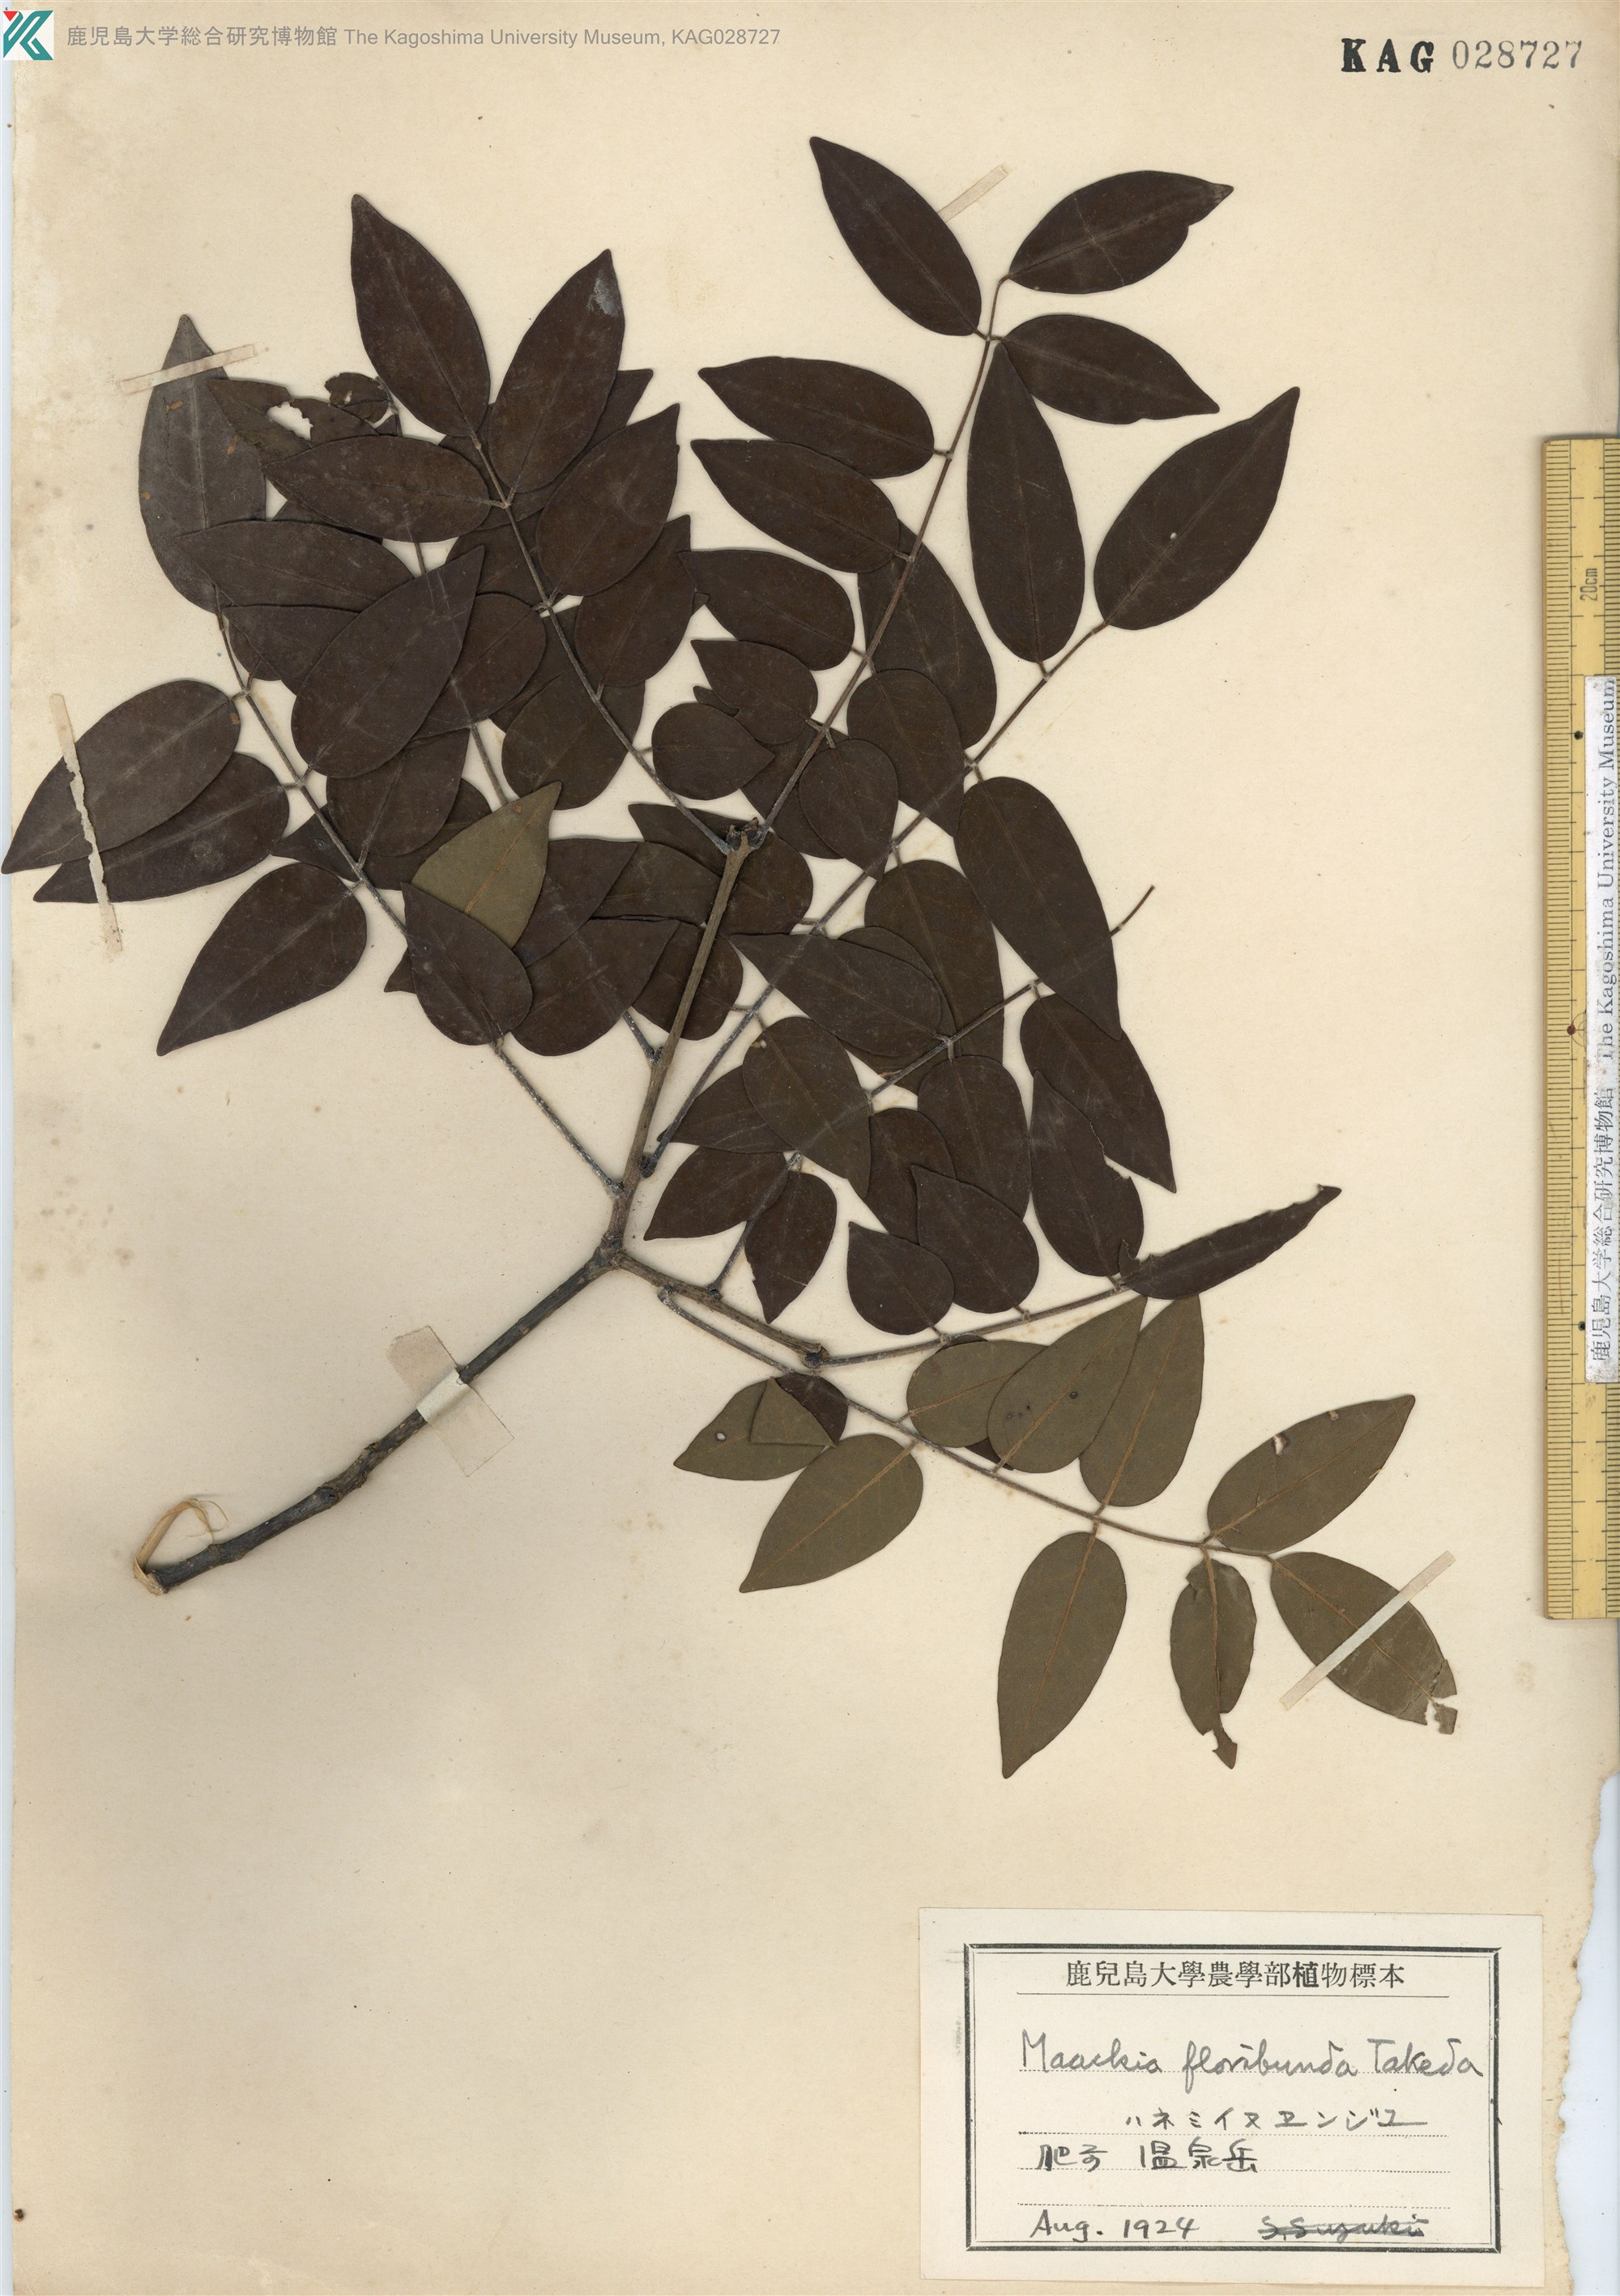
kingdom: Plantae
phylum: Tracheophyta
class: Magnoliopsida
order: Fabales
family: Fabaceae
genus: Maackia
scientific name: Maackia amurensis
